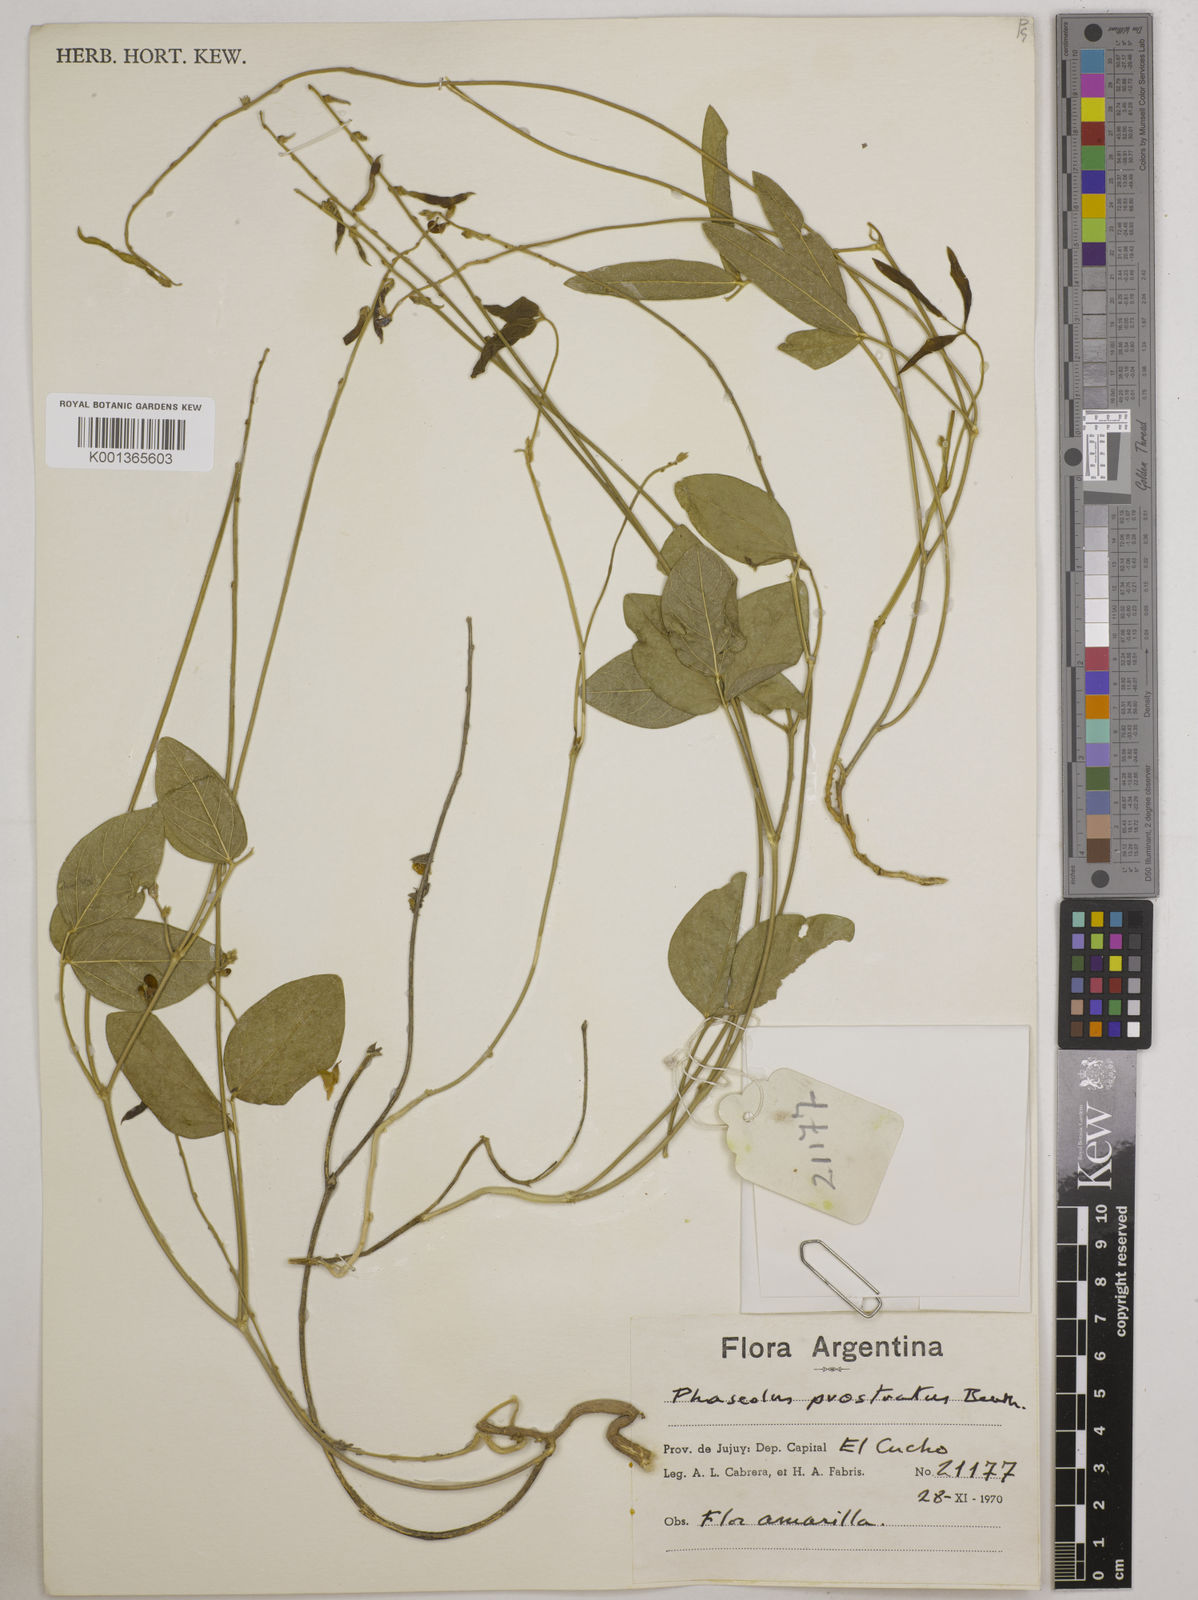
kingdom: Plantae
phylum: Tracheophyta
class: Magnoliopsida
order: Fabales
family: Fabaceae
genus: Macroptilium
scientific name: Macroptilium prostratum
